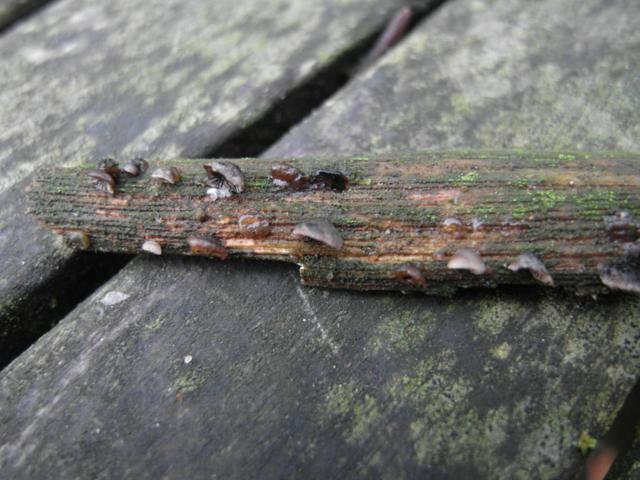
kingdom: Fungi
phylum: Basidiomycota
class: Agaricomycetes
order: Agaricales
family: Pleurotaceae
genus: Resupinatus
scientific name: Resupinatus trichotis
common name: mørkfiltet barkhat
